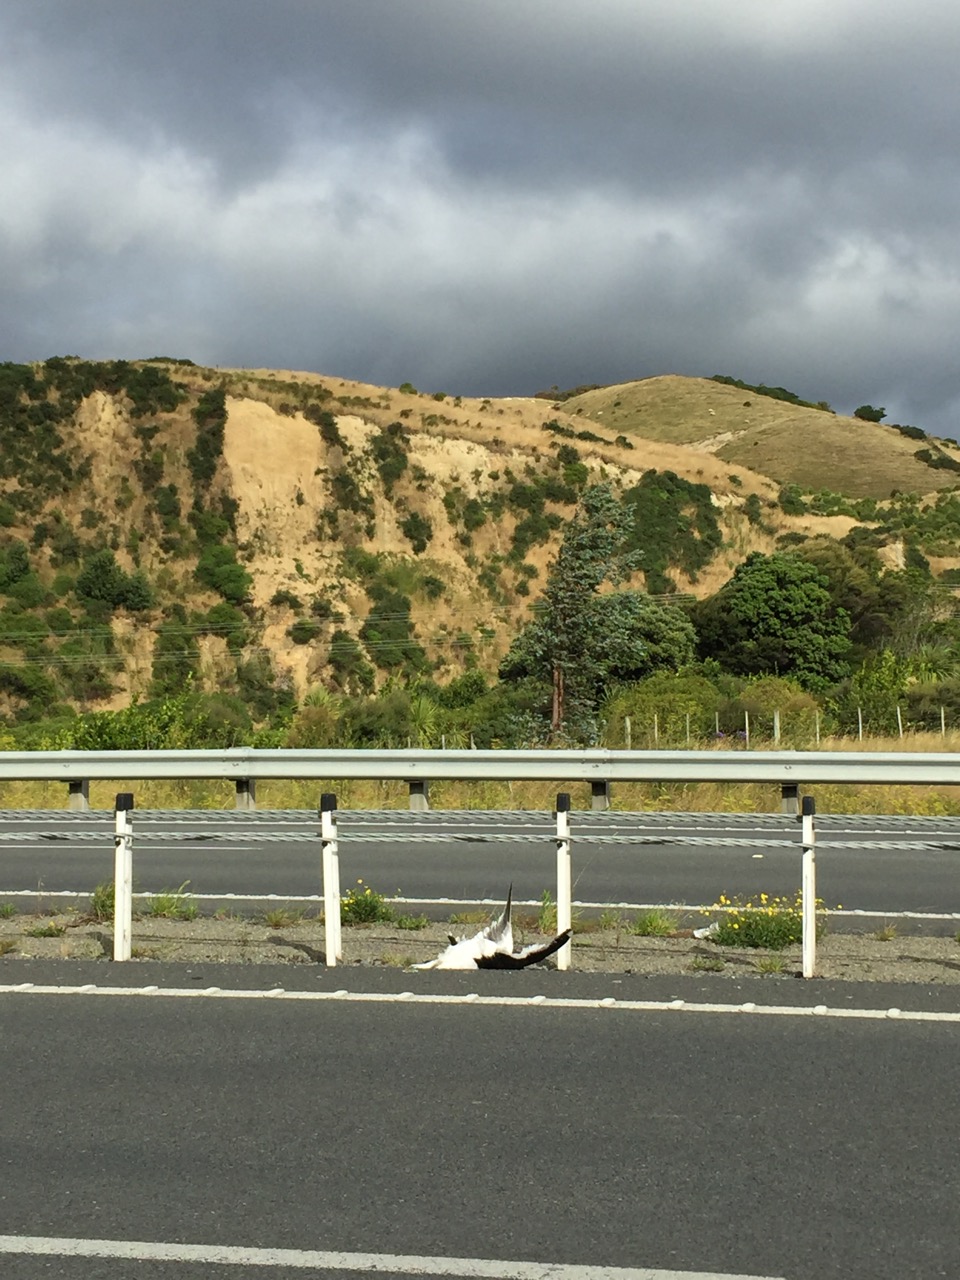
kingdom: Animalia
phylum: Chordata
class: Aves
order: Charadriiformes
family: Laridae
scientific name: Laridae
